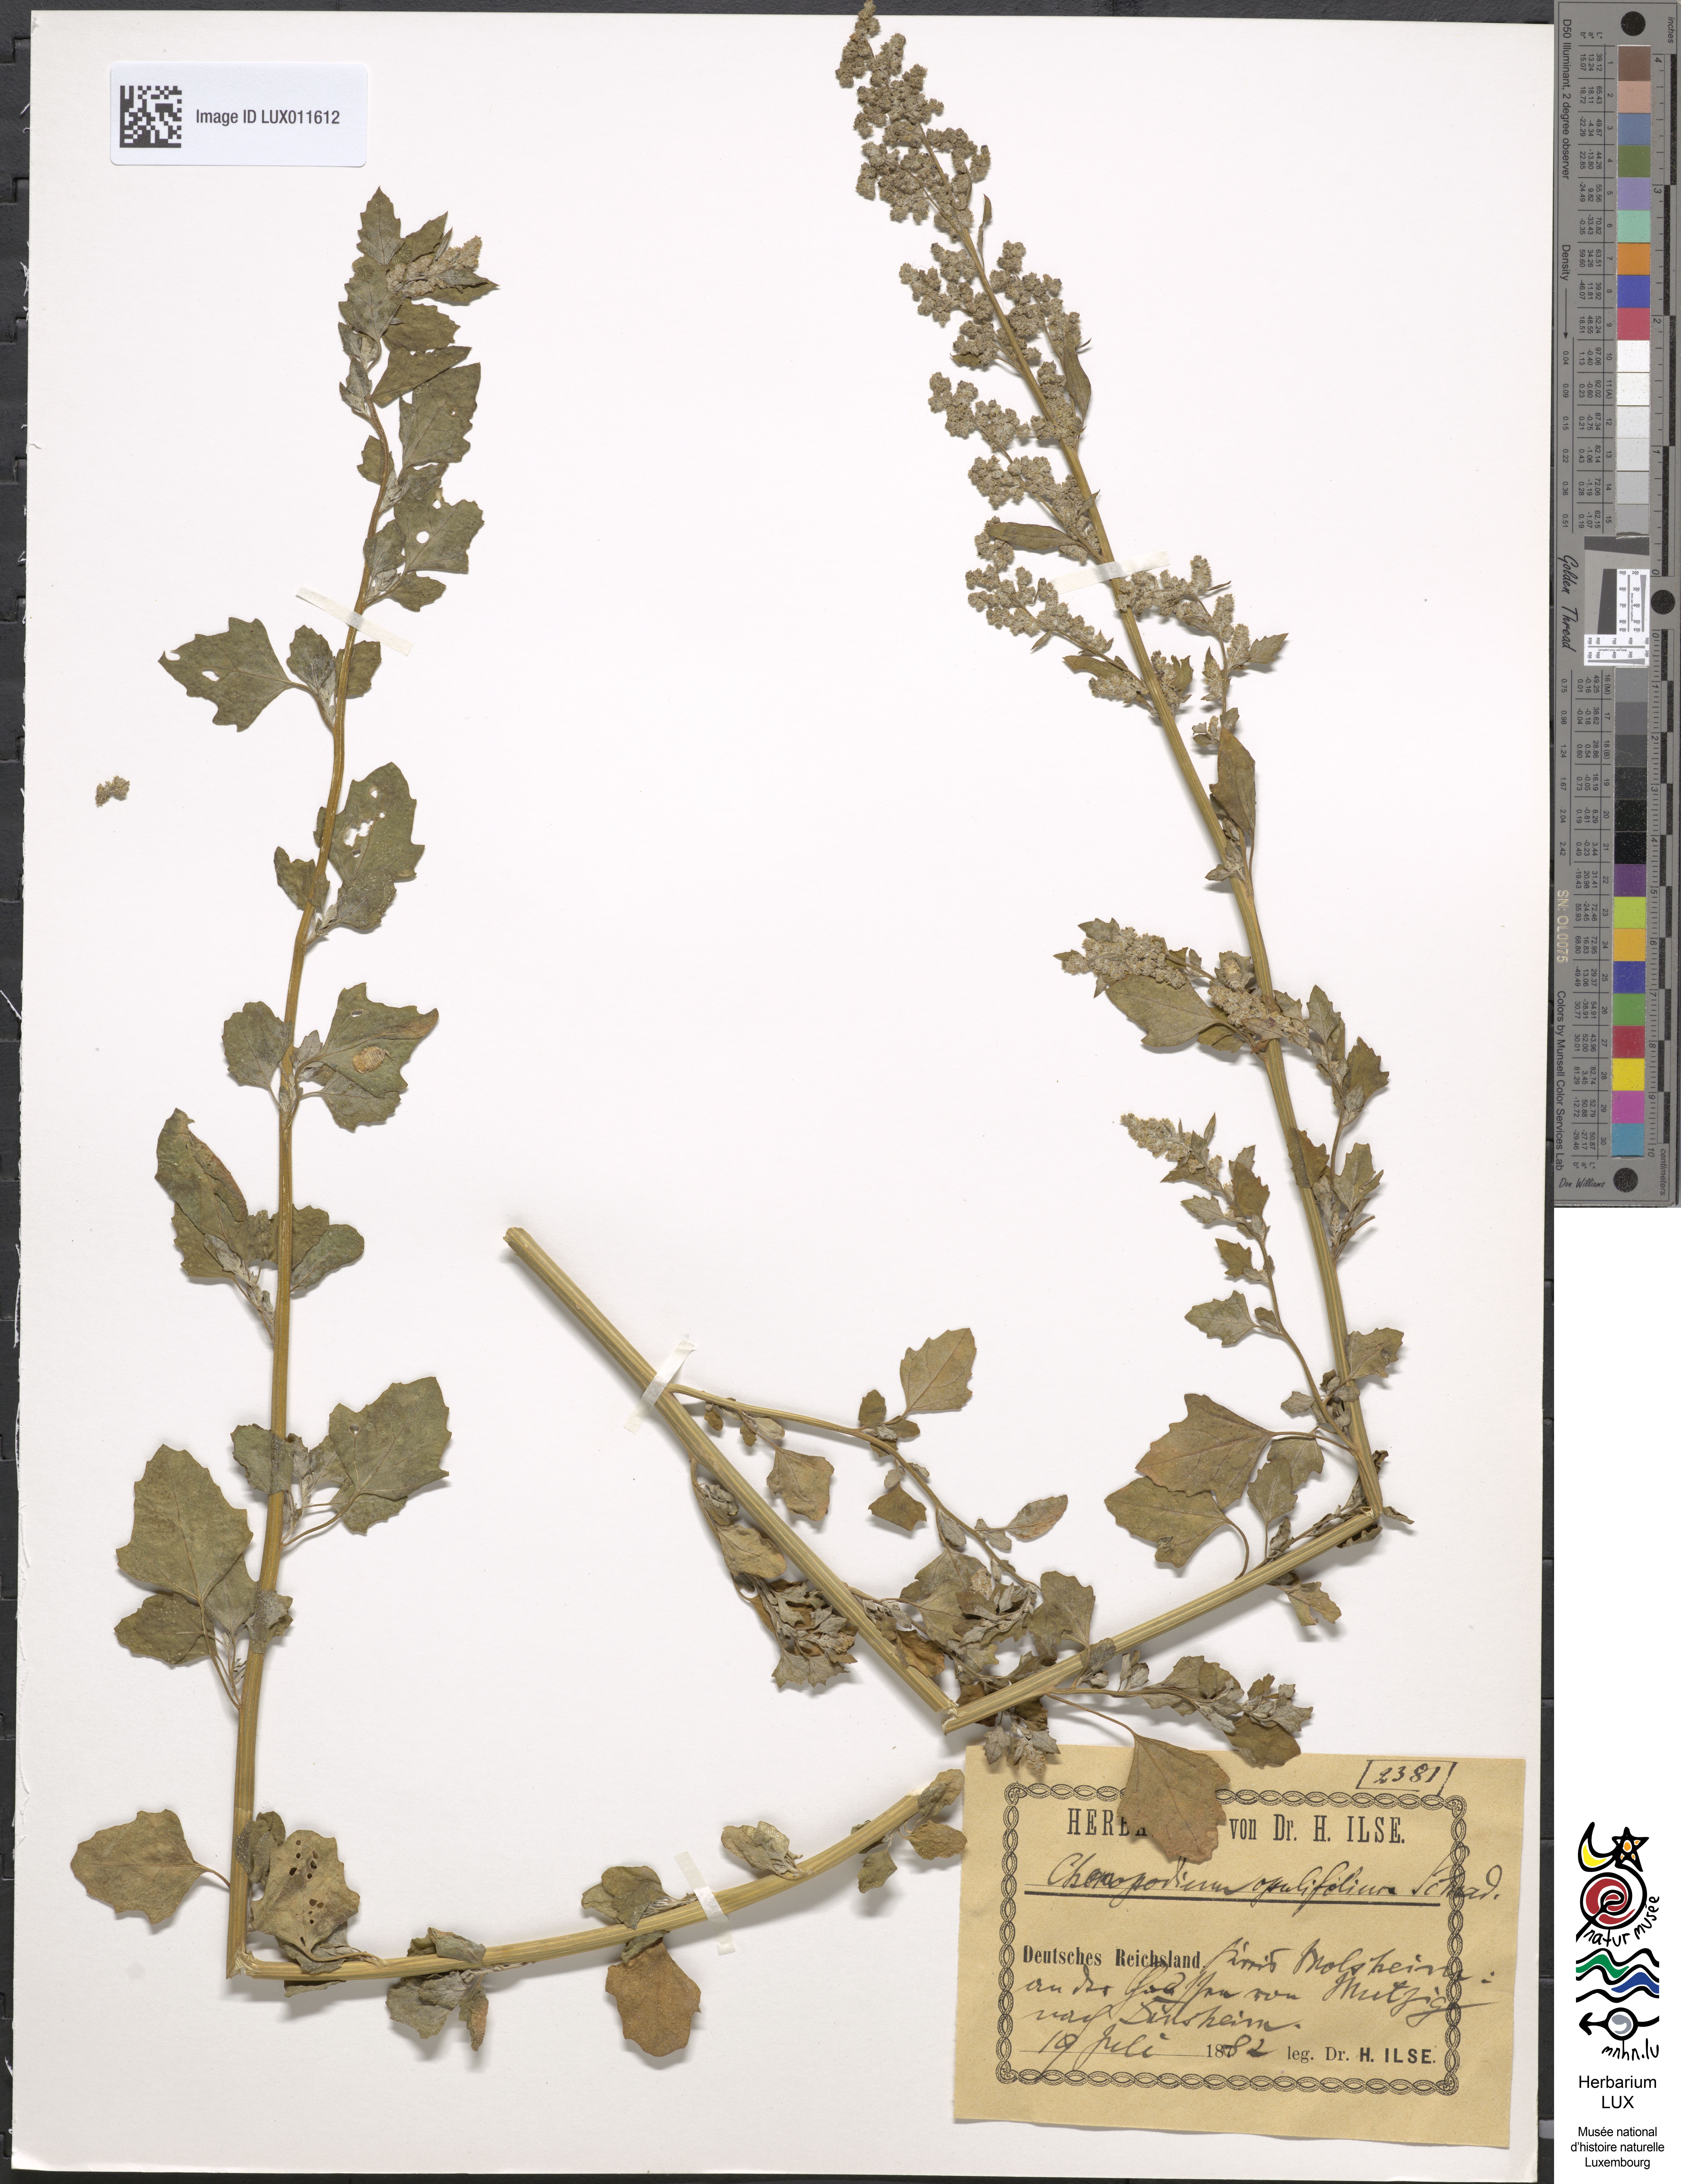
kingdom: Plantae
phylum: Tracheophyta
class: Magnoliopsida
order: Caryophyllales
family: Amaranthaceae
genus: Chenopodium
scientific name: Chenopodium opulifolium
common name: Grey goosefoot
